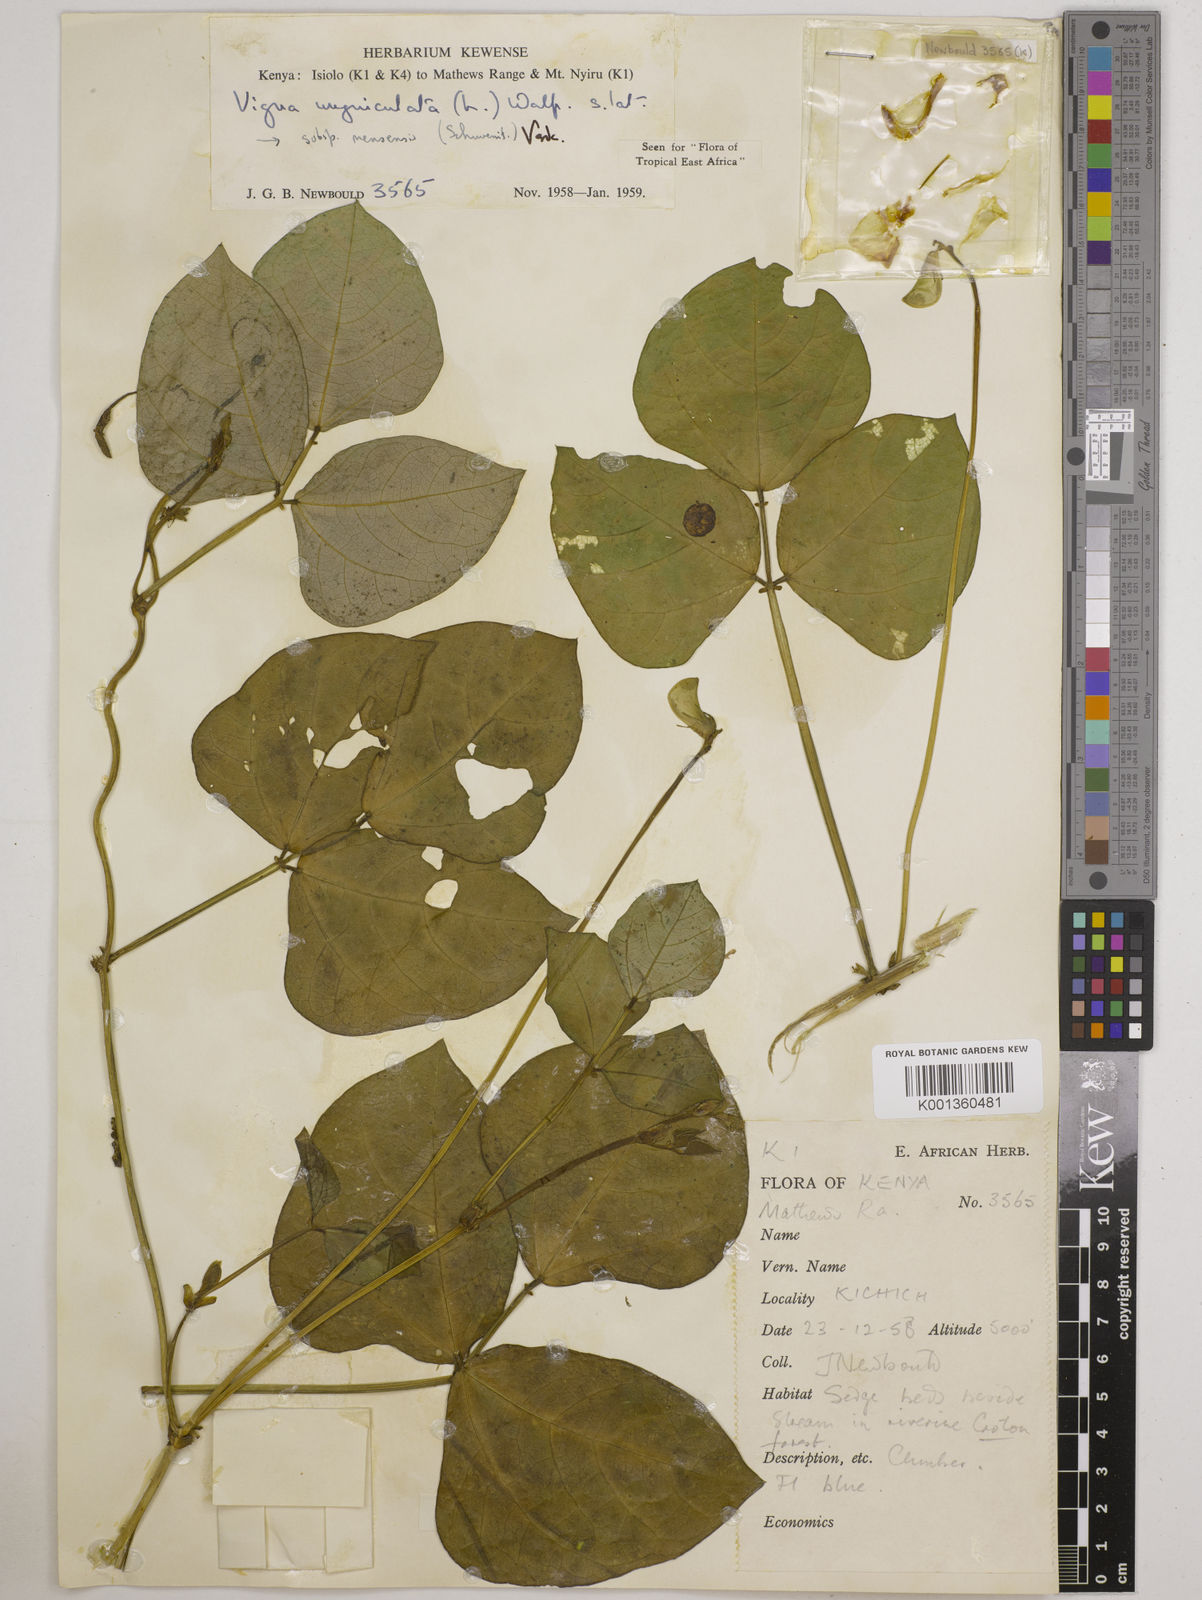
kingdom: Plantae
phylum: Tracheophyta
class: Magnoliopsida
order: Fabales
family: Fabaceae
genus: Vigna
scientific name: Vigna unguiculata
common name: Cowpea
